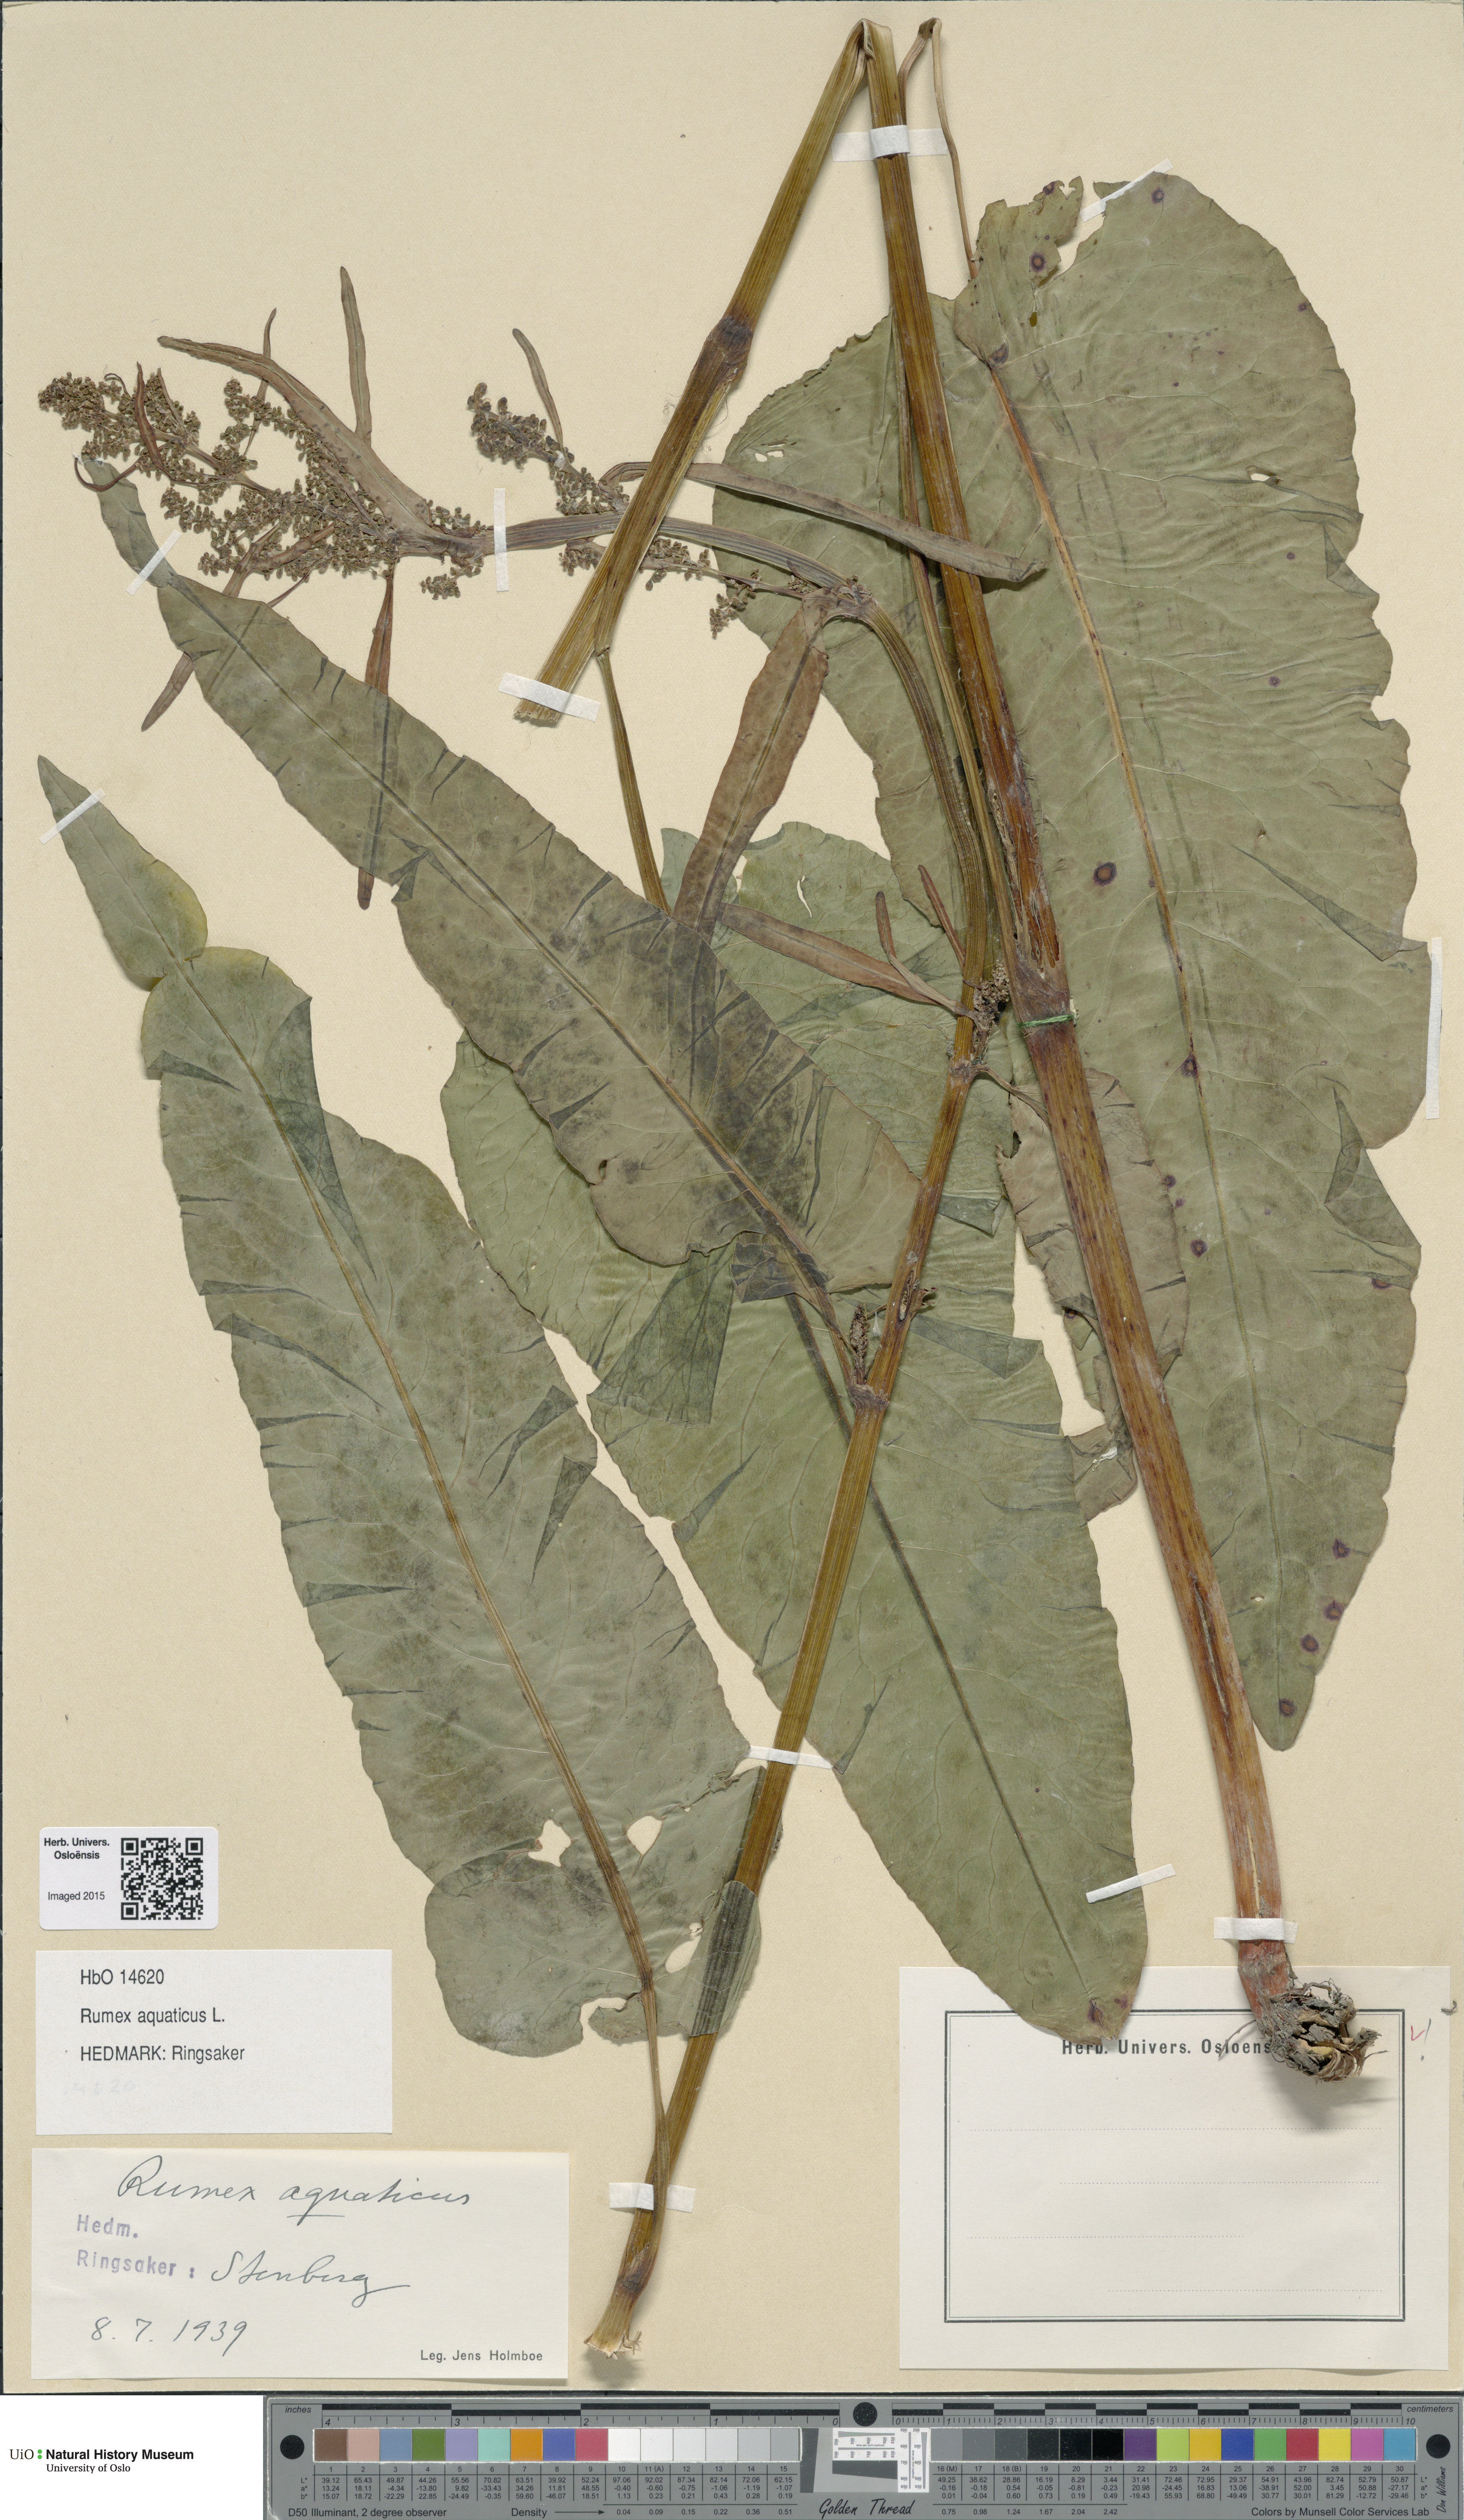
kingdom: Plantae
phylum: Tracheophyta
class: Magnoliopsida
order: Caryophyllales
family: Polygonaceae
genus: Rumex
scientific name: Rumex aquaticus
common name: Scottish dock
